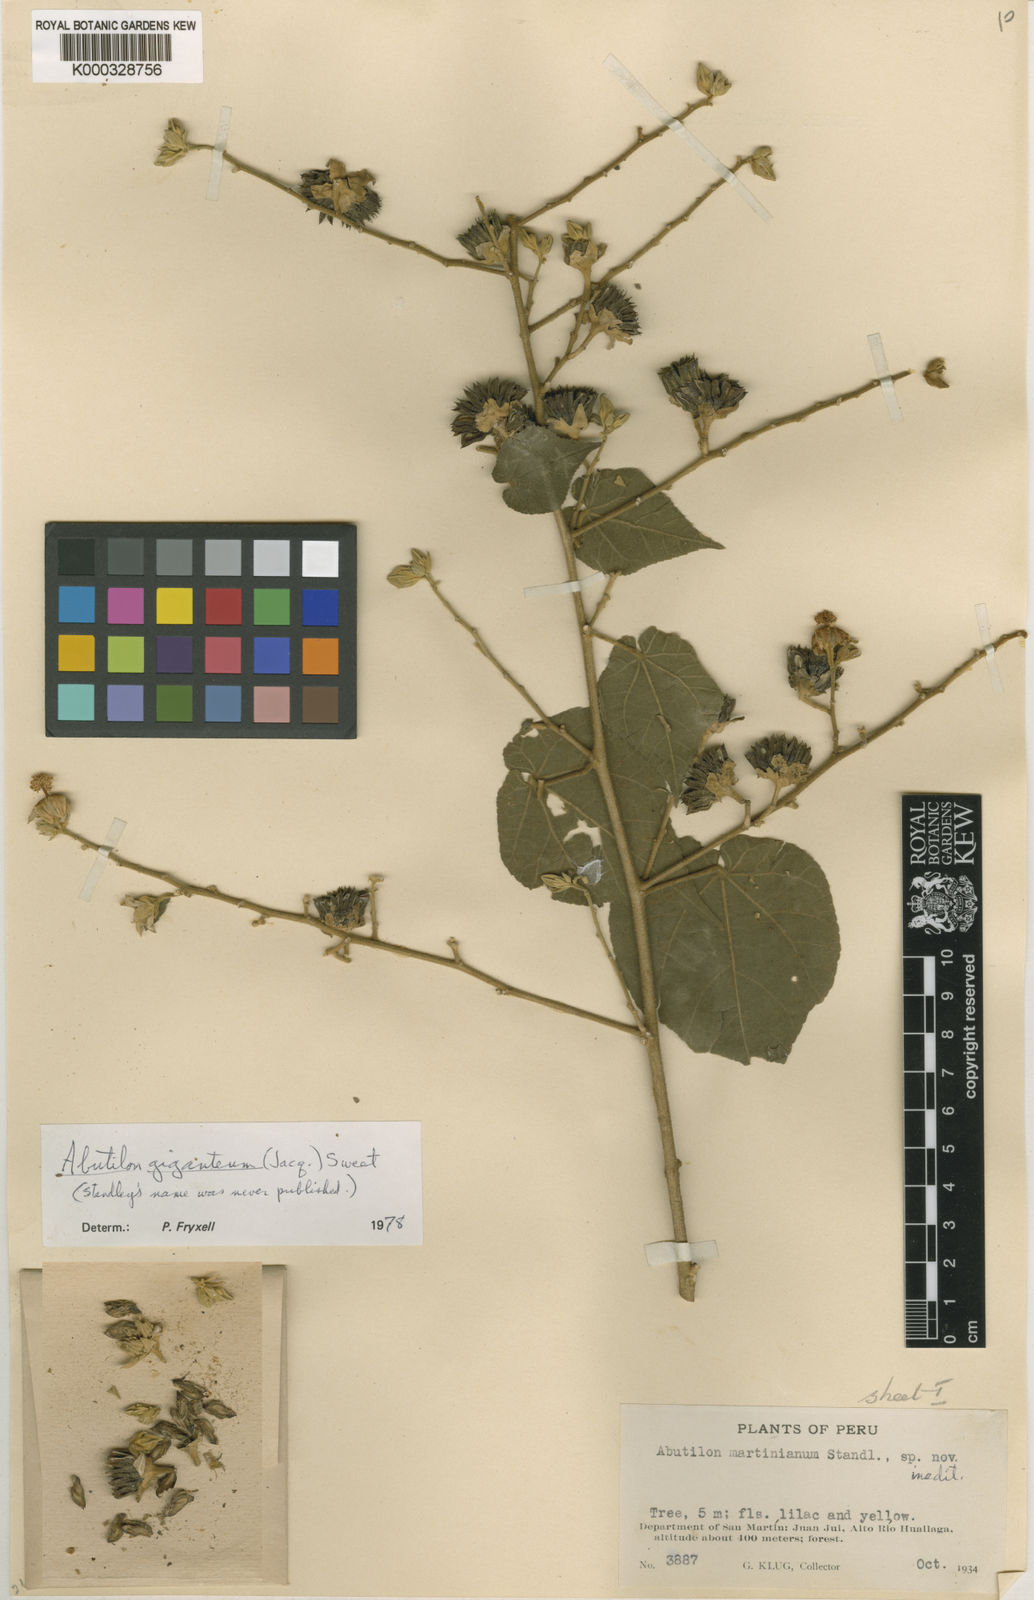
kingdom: Plantae
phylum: Tracheophyta
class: Magnoliopsida
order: Malvales
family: Malvaceae
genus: Abutilon
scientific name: Abutilon
